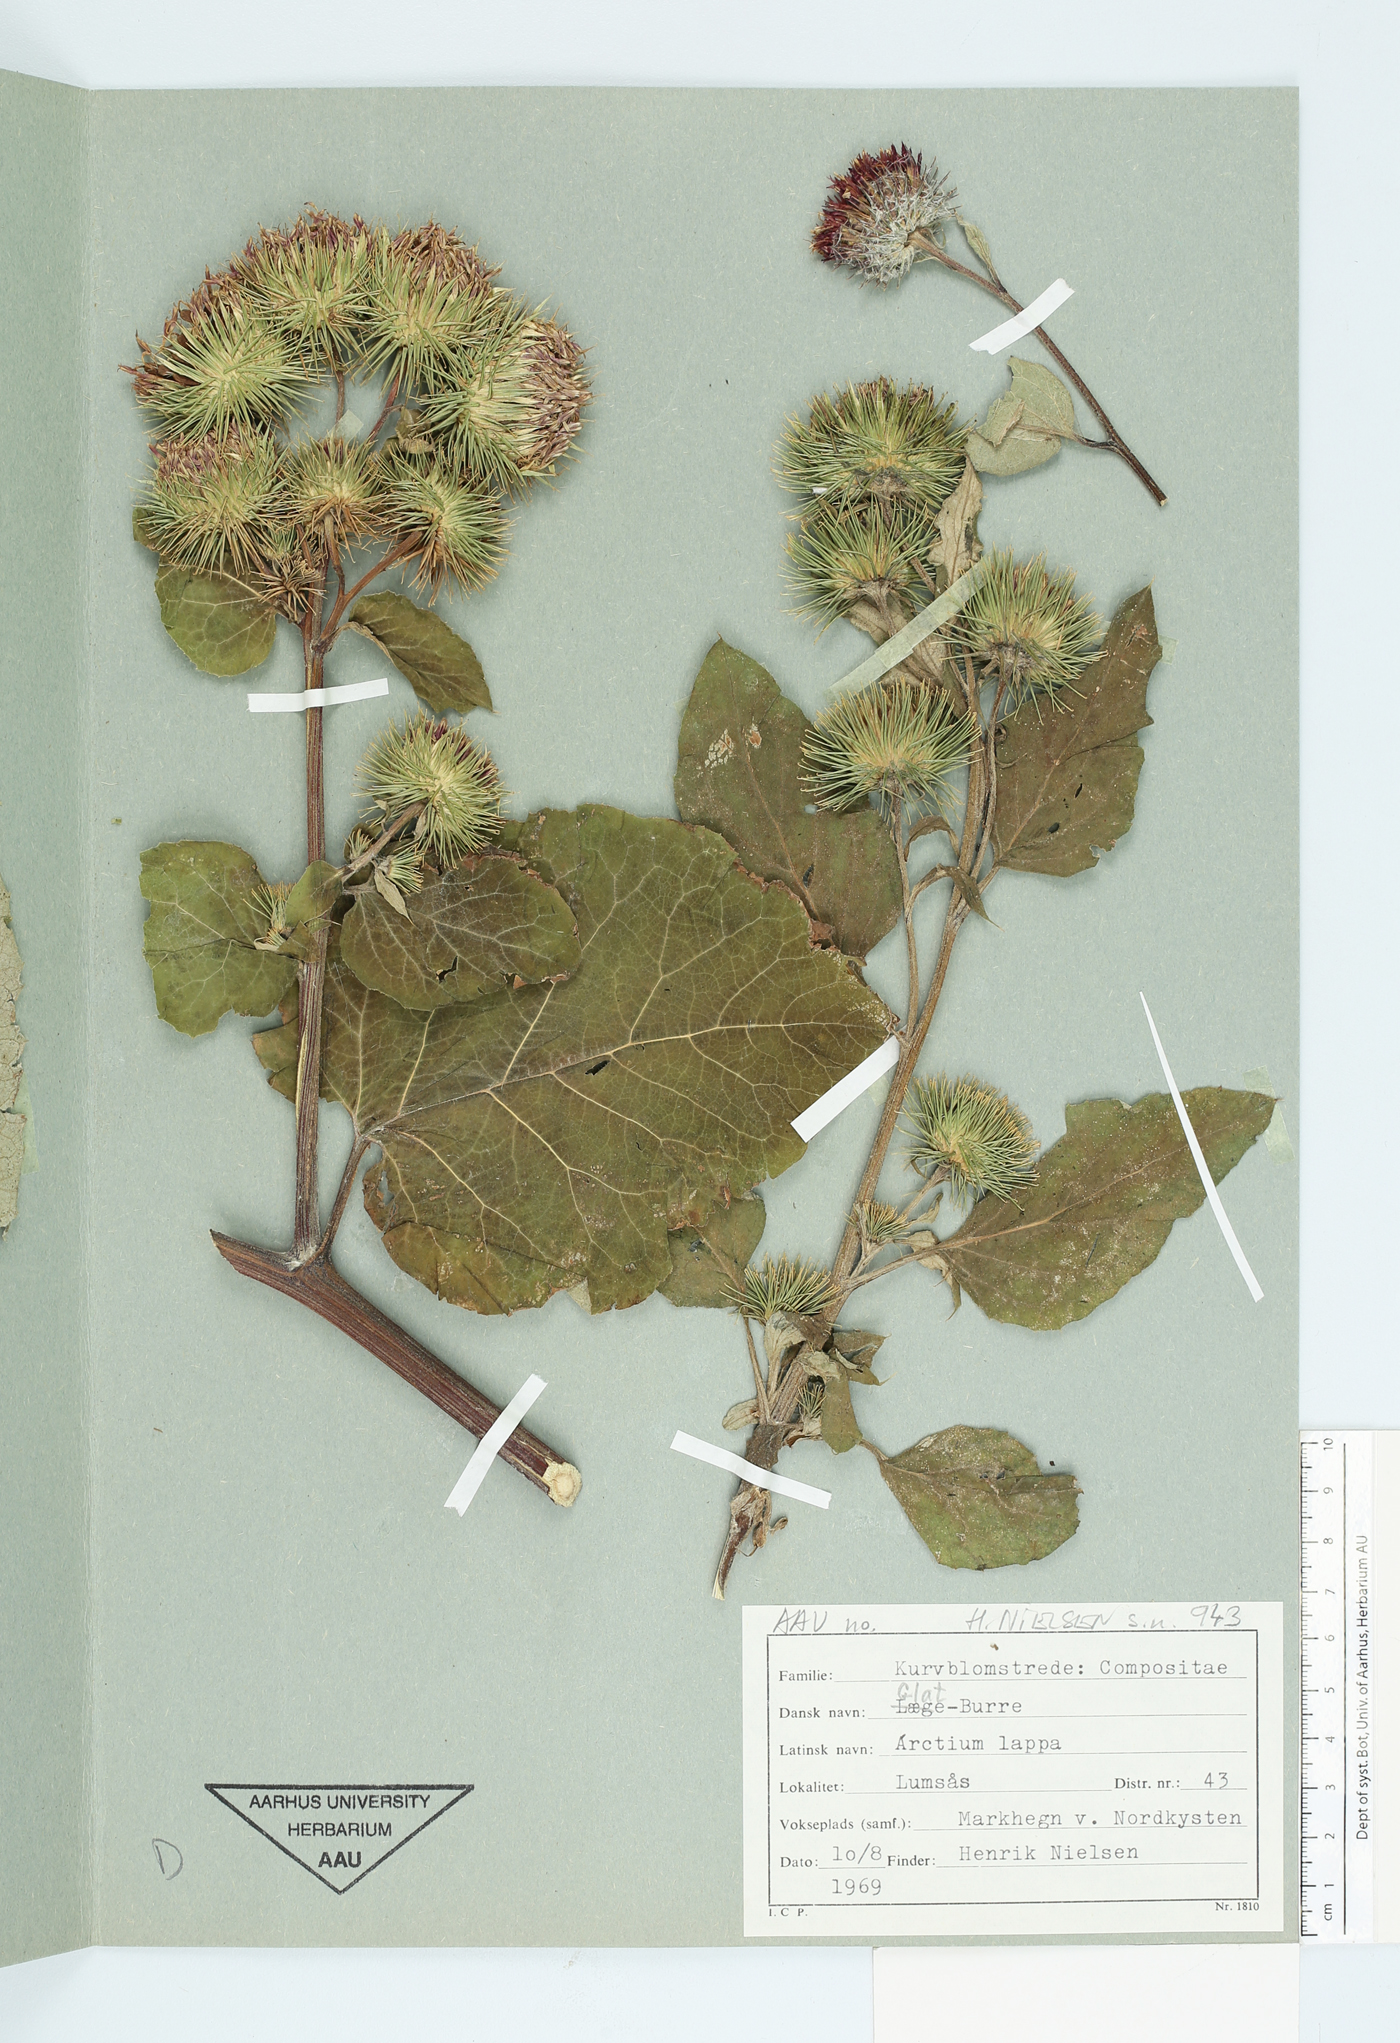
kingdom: Plantae
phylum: Tracheophyta
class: Magnoliopsida
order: Asterales
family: Asteraceae
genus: Arctium
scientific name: Arctium lappa
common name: Greater burdock
